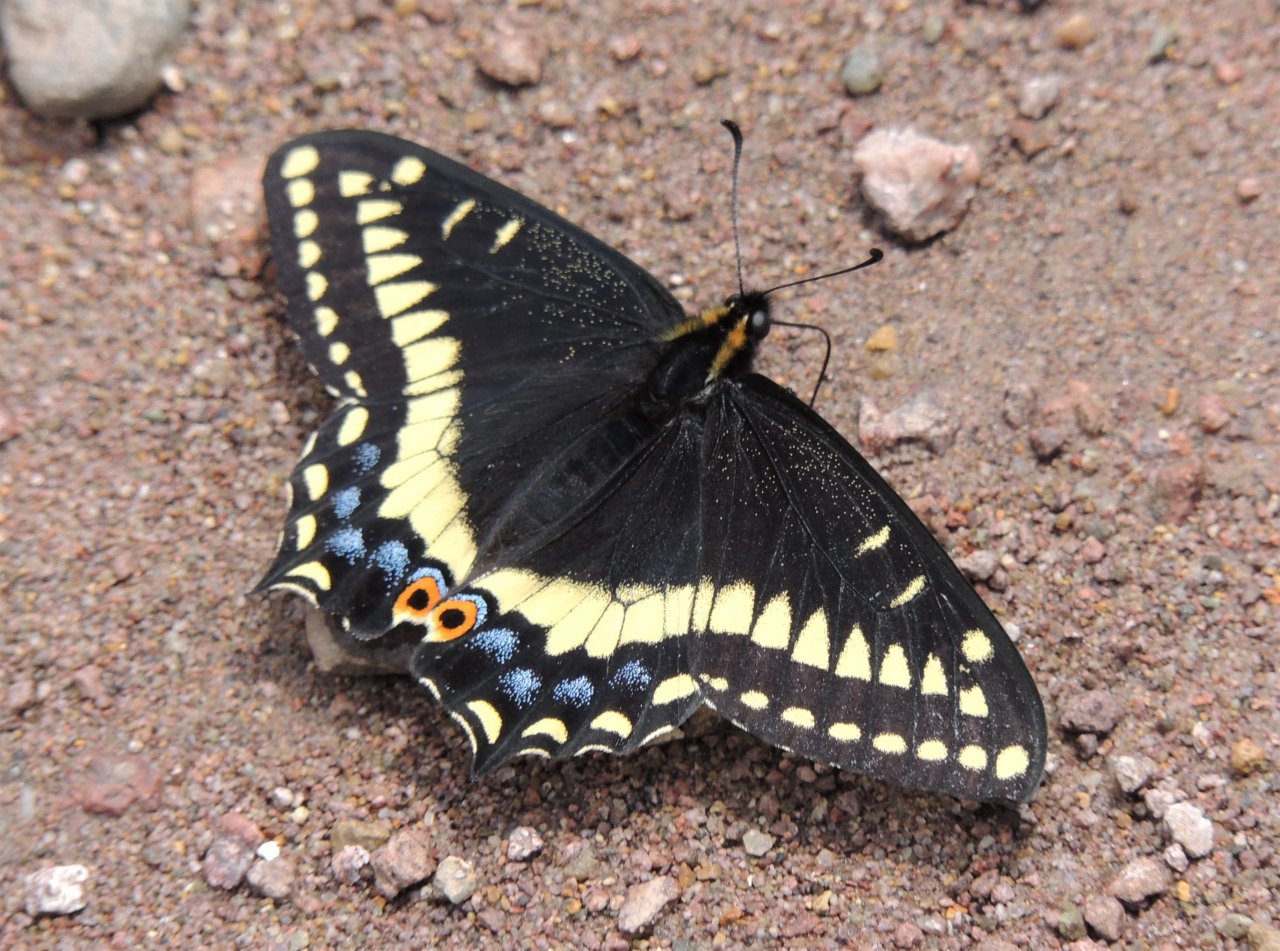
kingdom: Animalia
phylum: Arthropoda
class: Insecta
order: Lepidoptera
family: Papilionidae
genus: Papilio
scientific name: Papilio indra
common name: Indra Swallowtail
